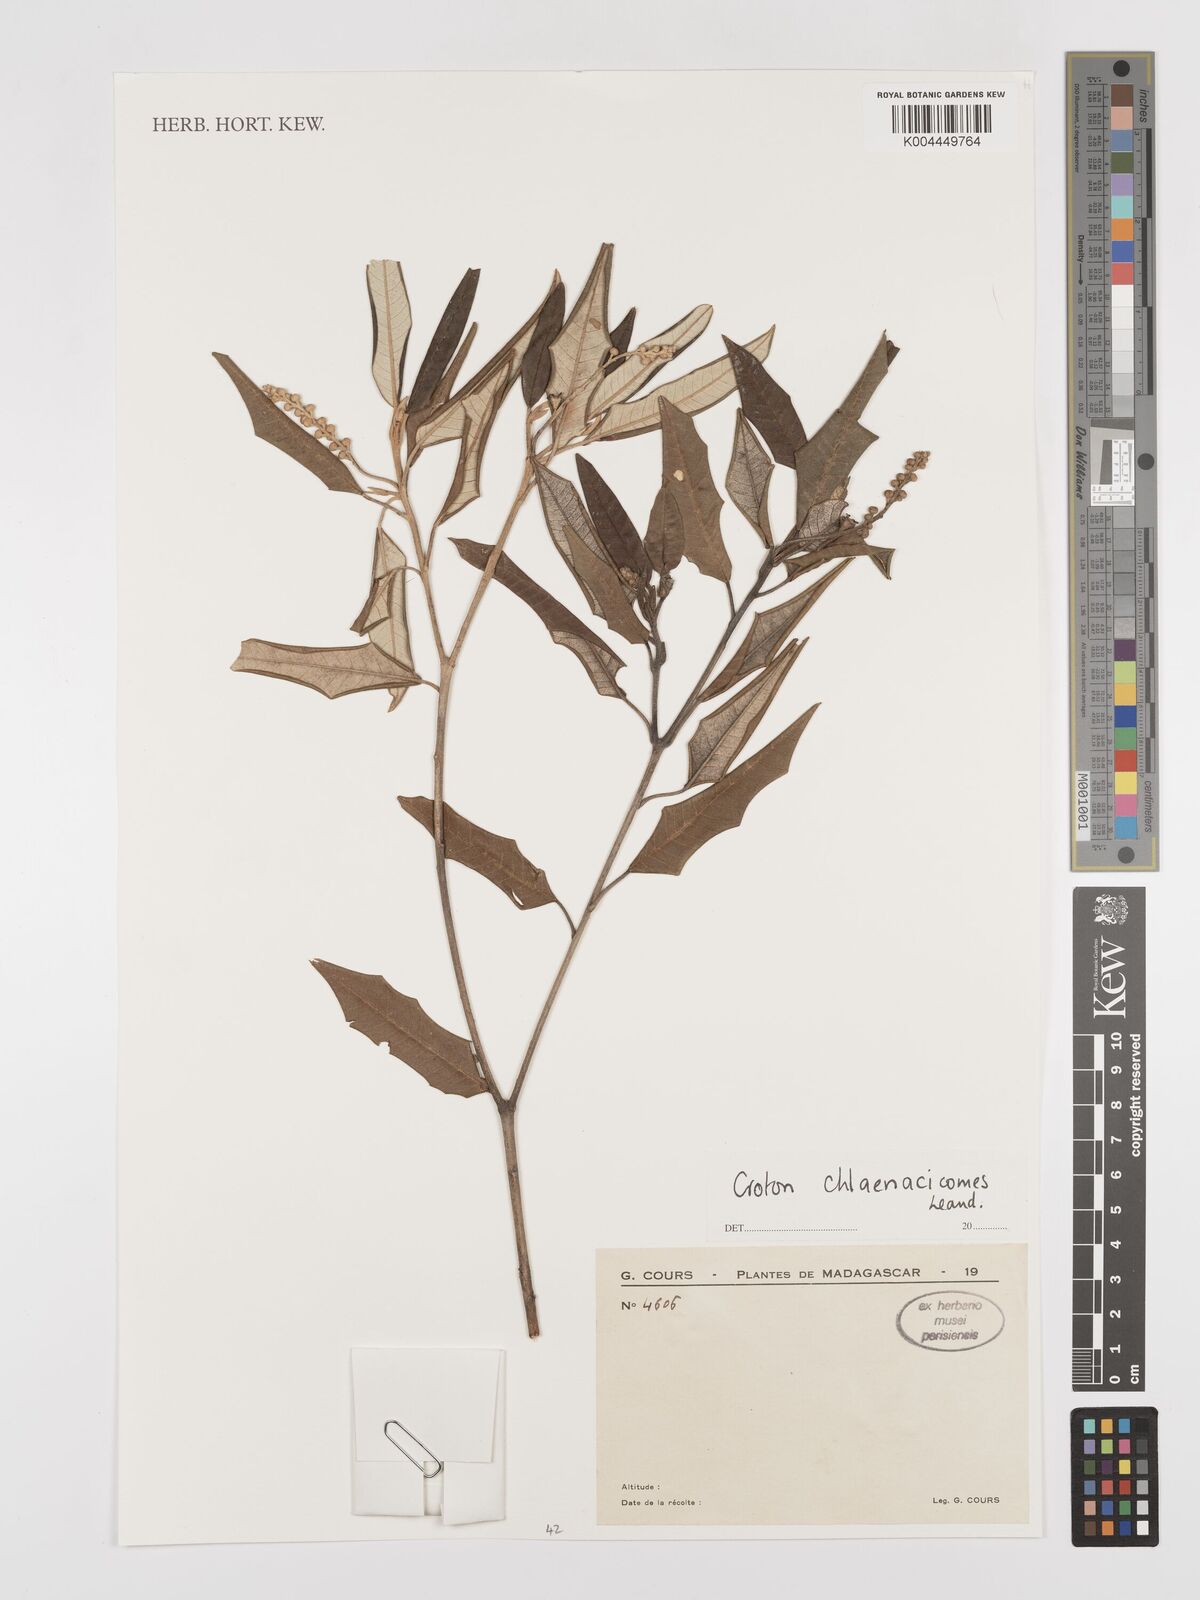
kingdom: Plantae
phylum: Tracheophyta
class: Magnoliopsida
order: Malpighiales
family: Euphorbiaceae
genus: Croton
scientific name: Croton chlaenacicomes
